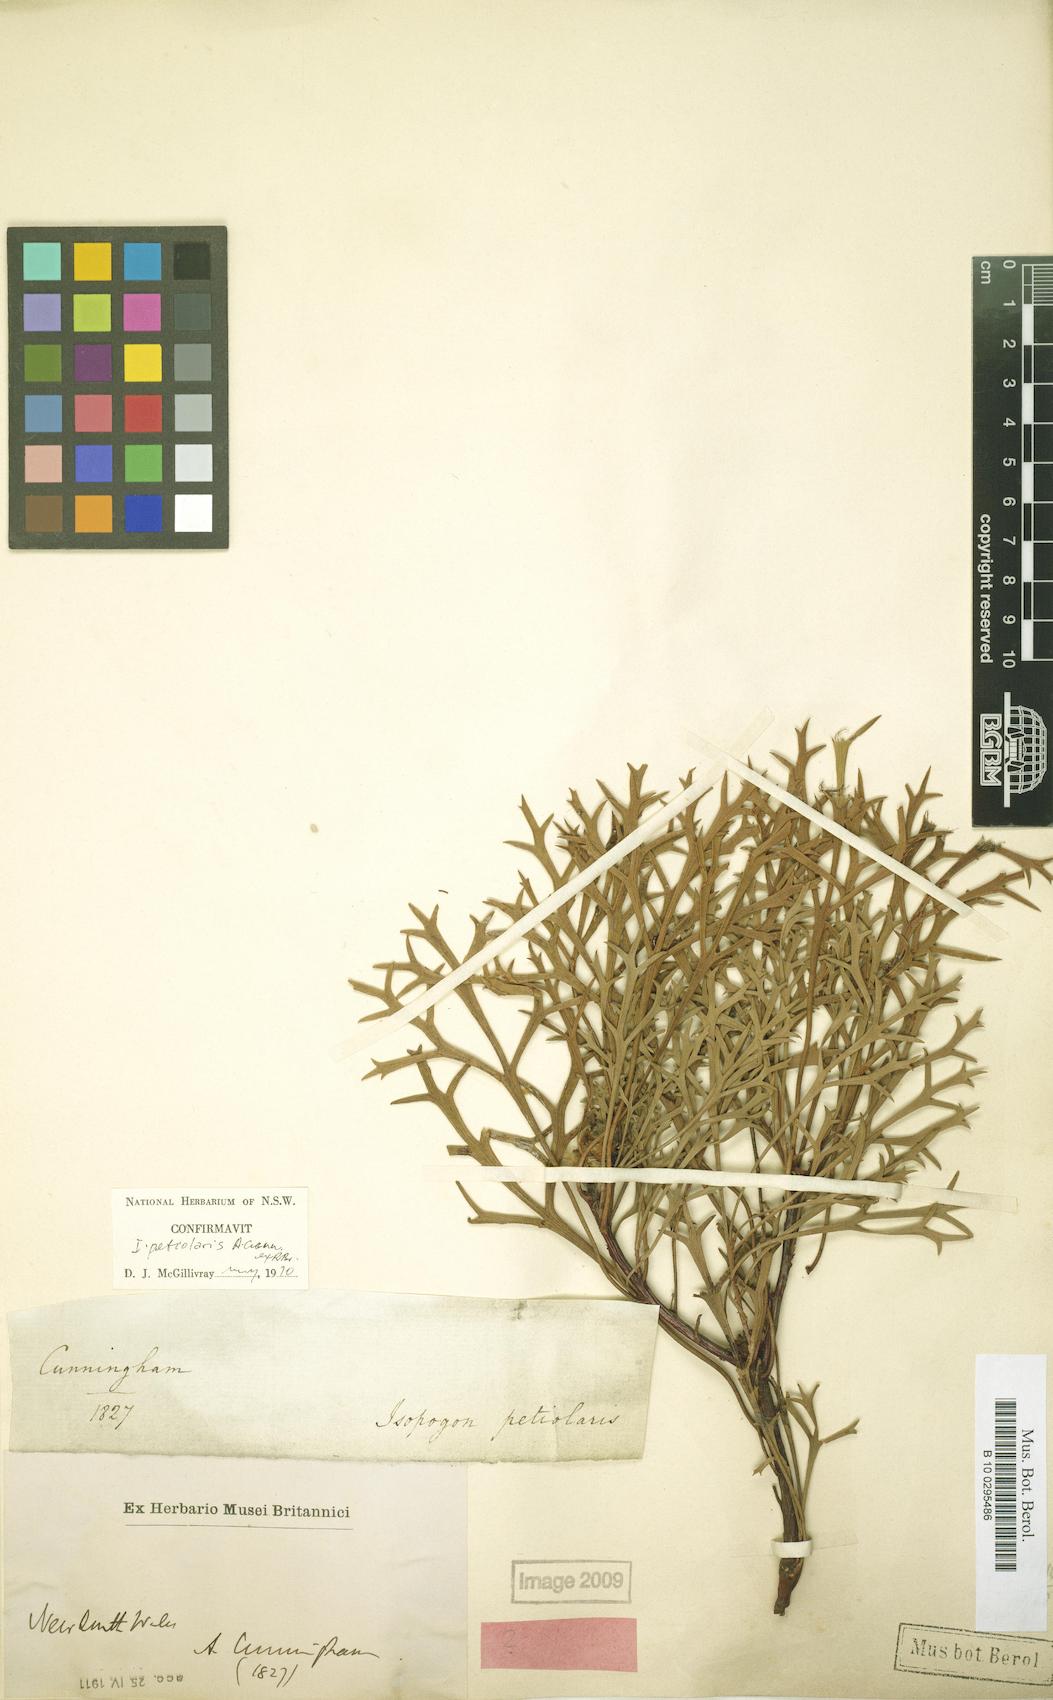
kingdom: Plantae
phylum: Tracheophyta
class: Magnoliopsida
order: Proteales
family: Proteaceae
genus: Isopogon
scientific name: Isopogon petiolaris
